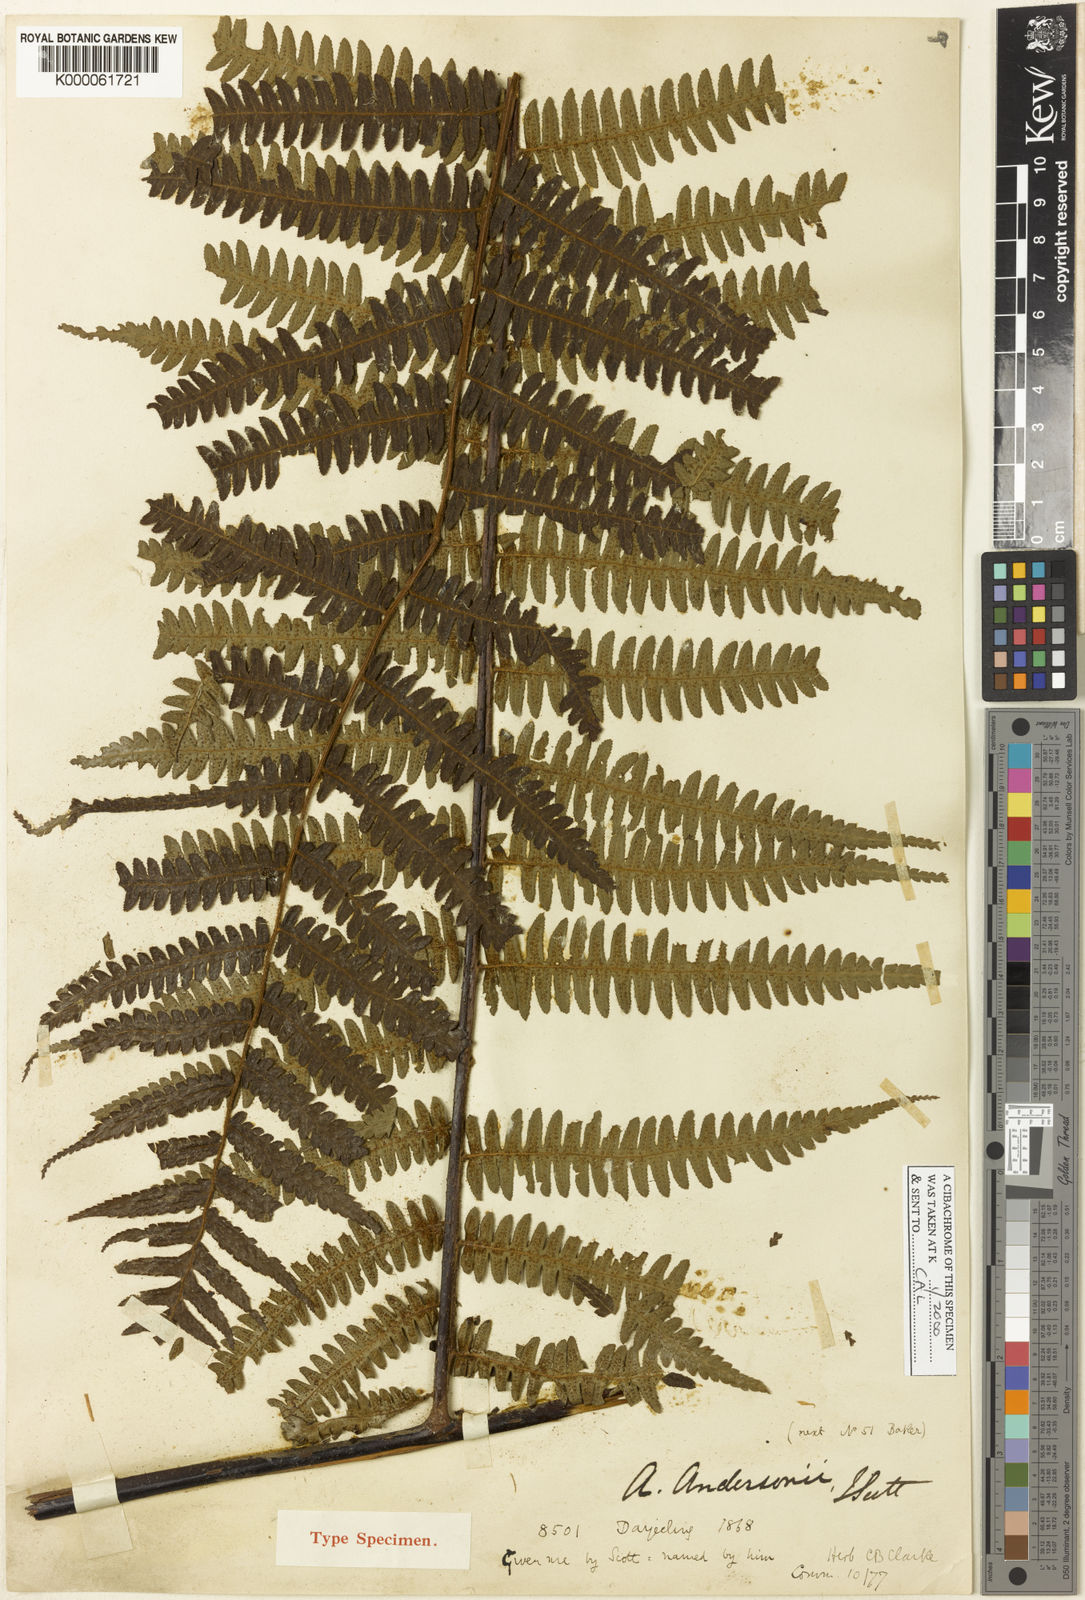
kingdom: Plantae
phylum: Tracheophyta
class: Polypodiopsida
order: Cyatheales
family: Cyatheaceae
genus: Gymnosphaera
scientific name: Gymnosphaera andersonii
